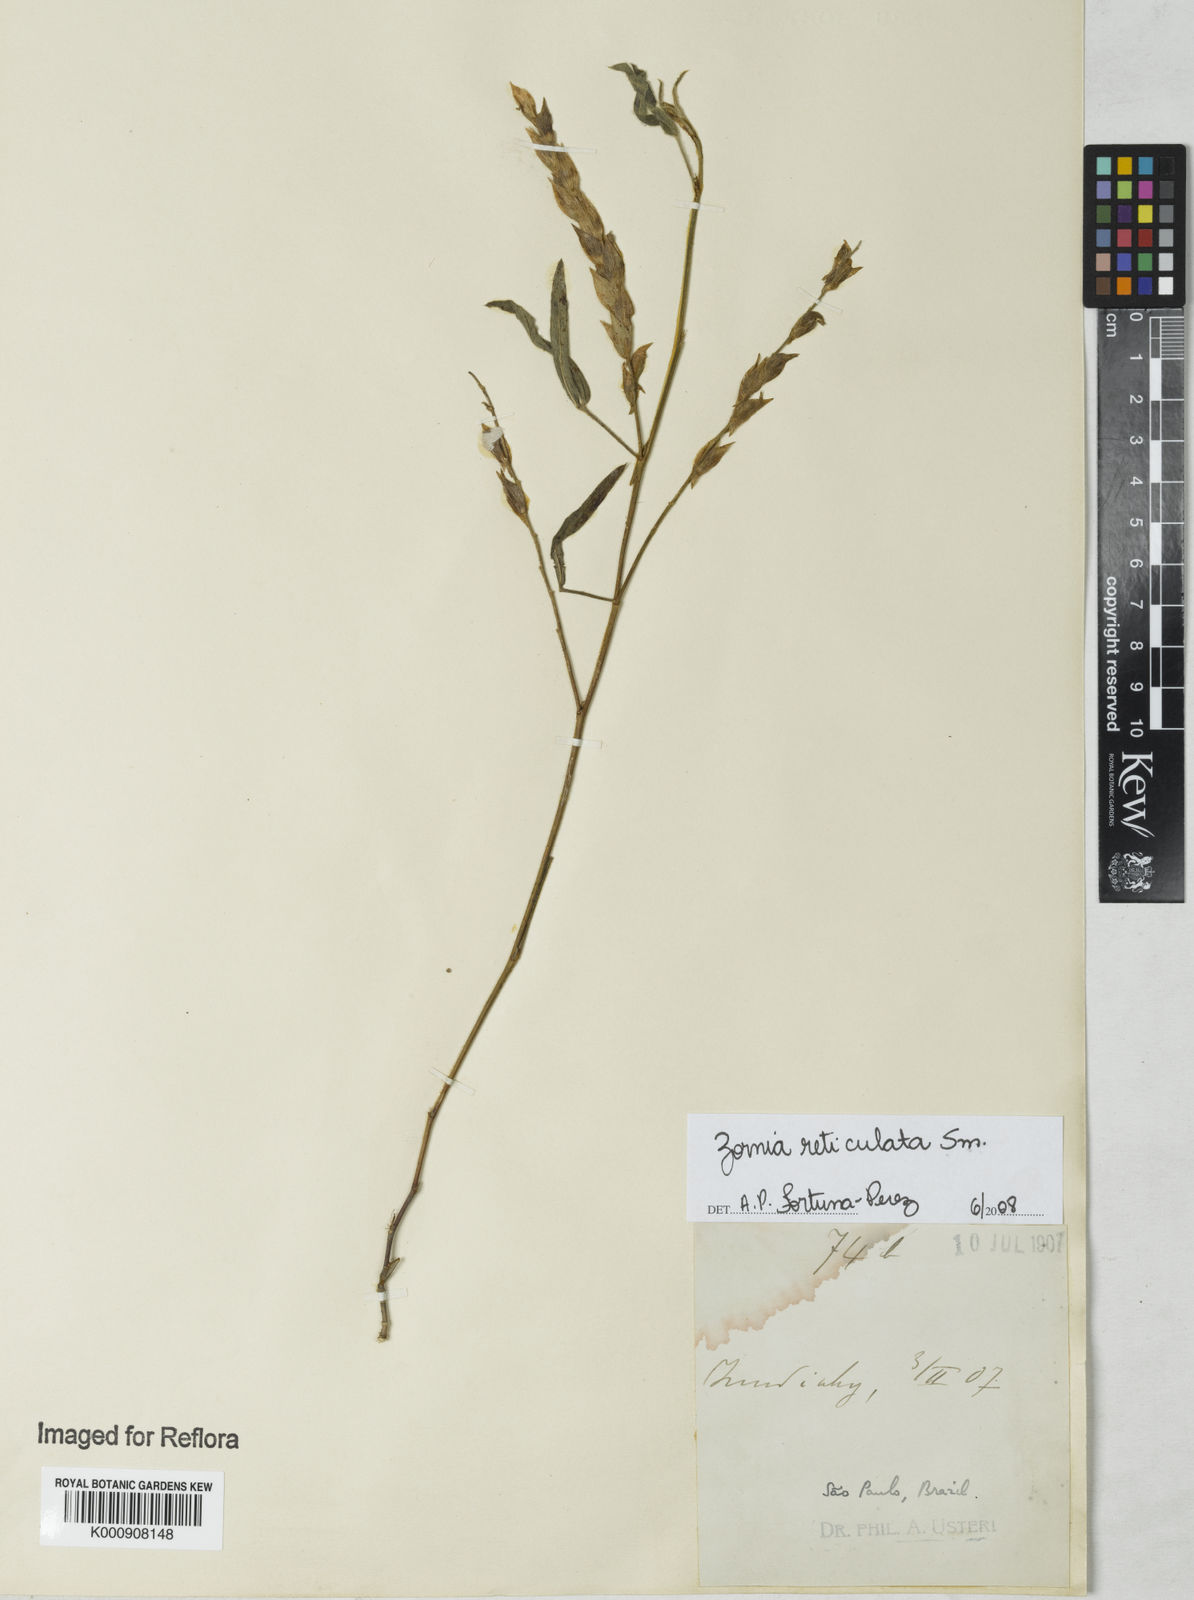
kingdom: Plantae
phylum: Tracheophyta
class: Magnoliopsida
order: Fabales
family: Fabaceae
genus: Zornia
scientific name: Zornia reticulata
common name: Reticulate viperina
